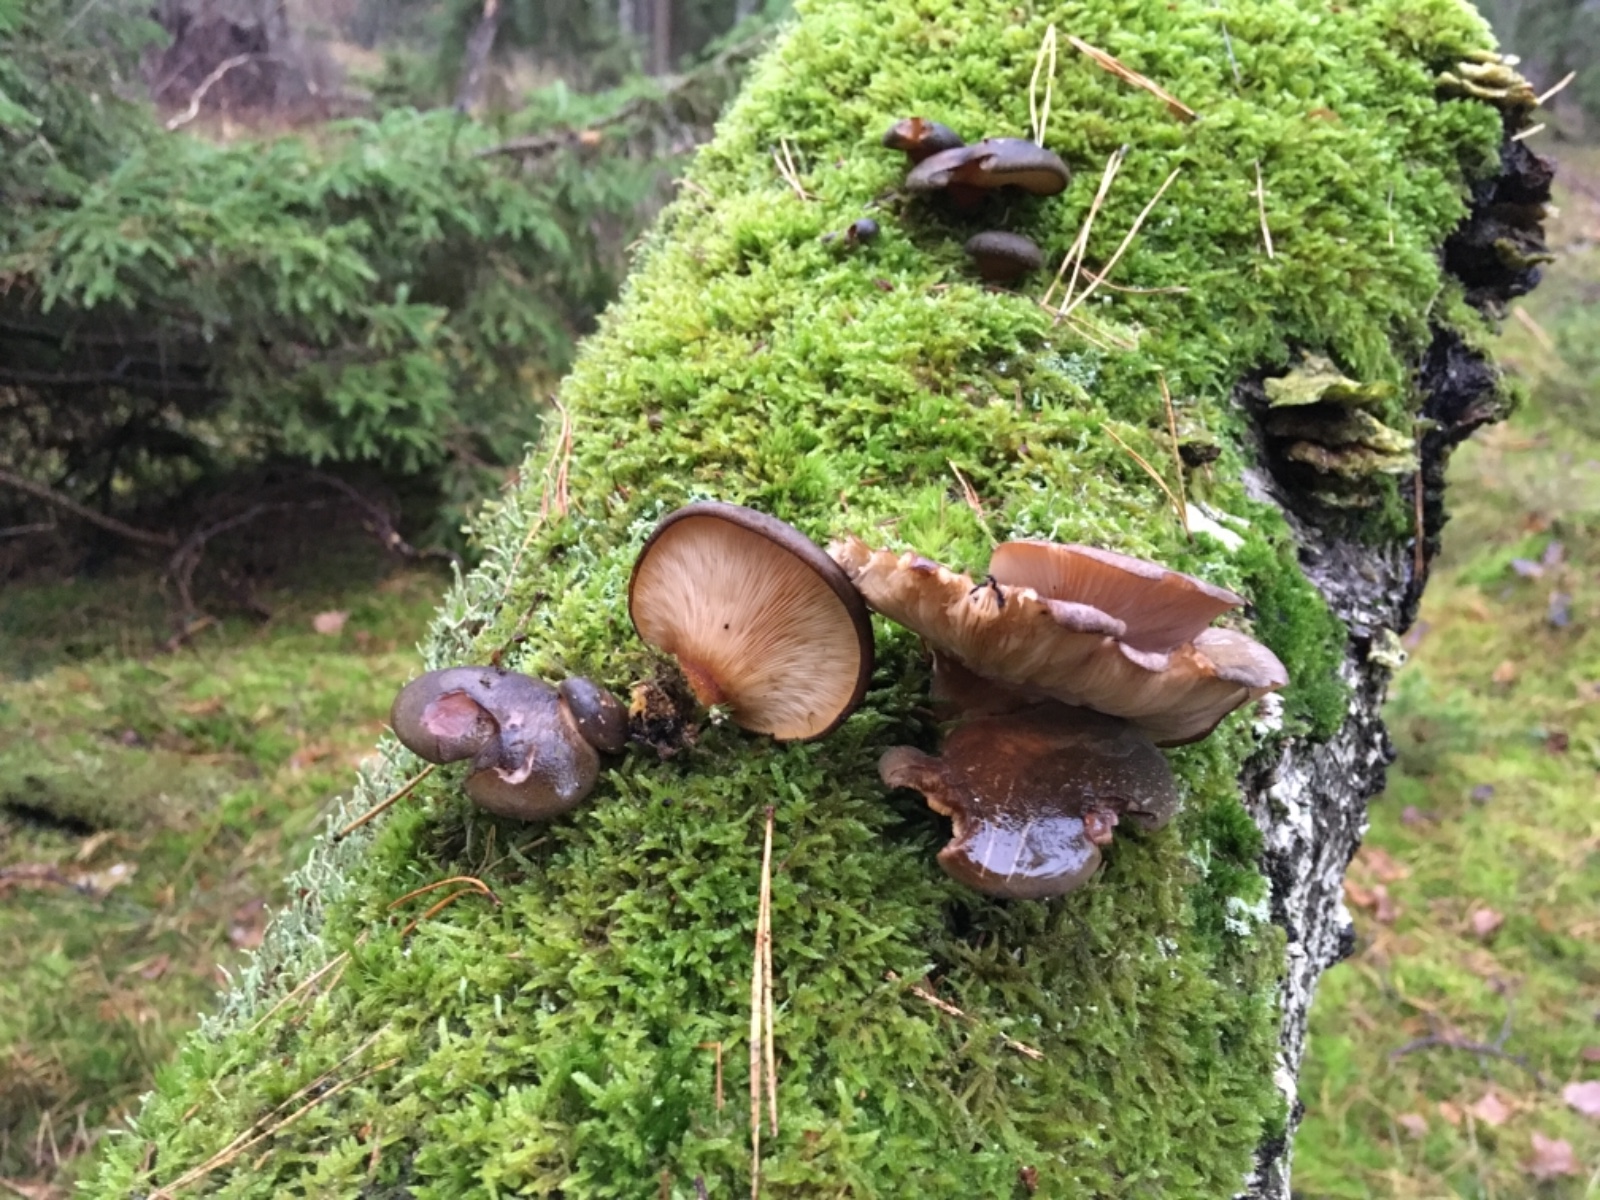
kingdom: Fungi
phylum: Basidiomycota
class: Agaricomycetes
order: Agaricales
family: Sarcomyxaceae
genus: Sarcomyxa
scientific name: Sarcomyxa serotina
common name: gummihat
